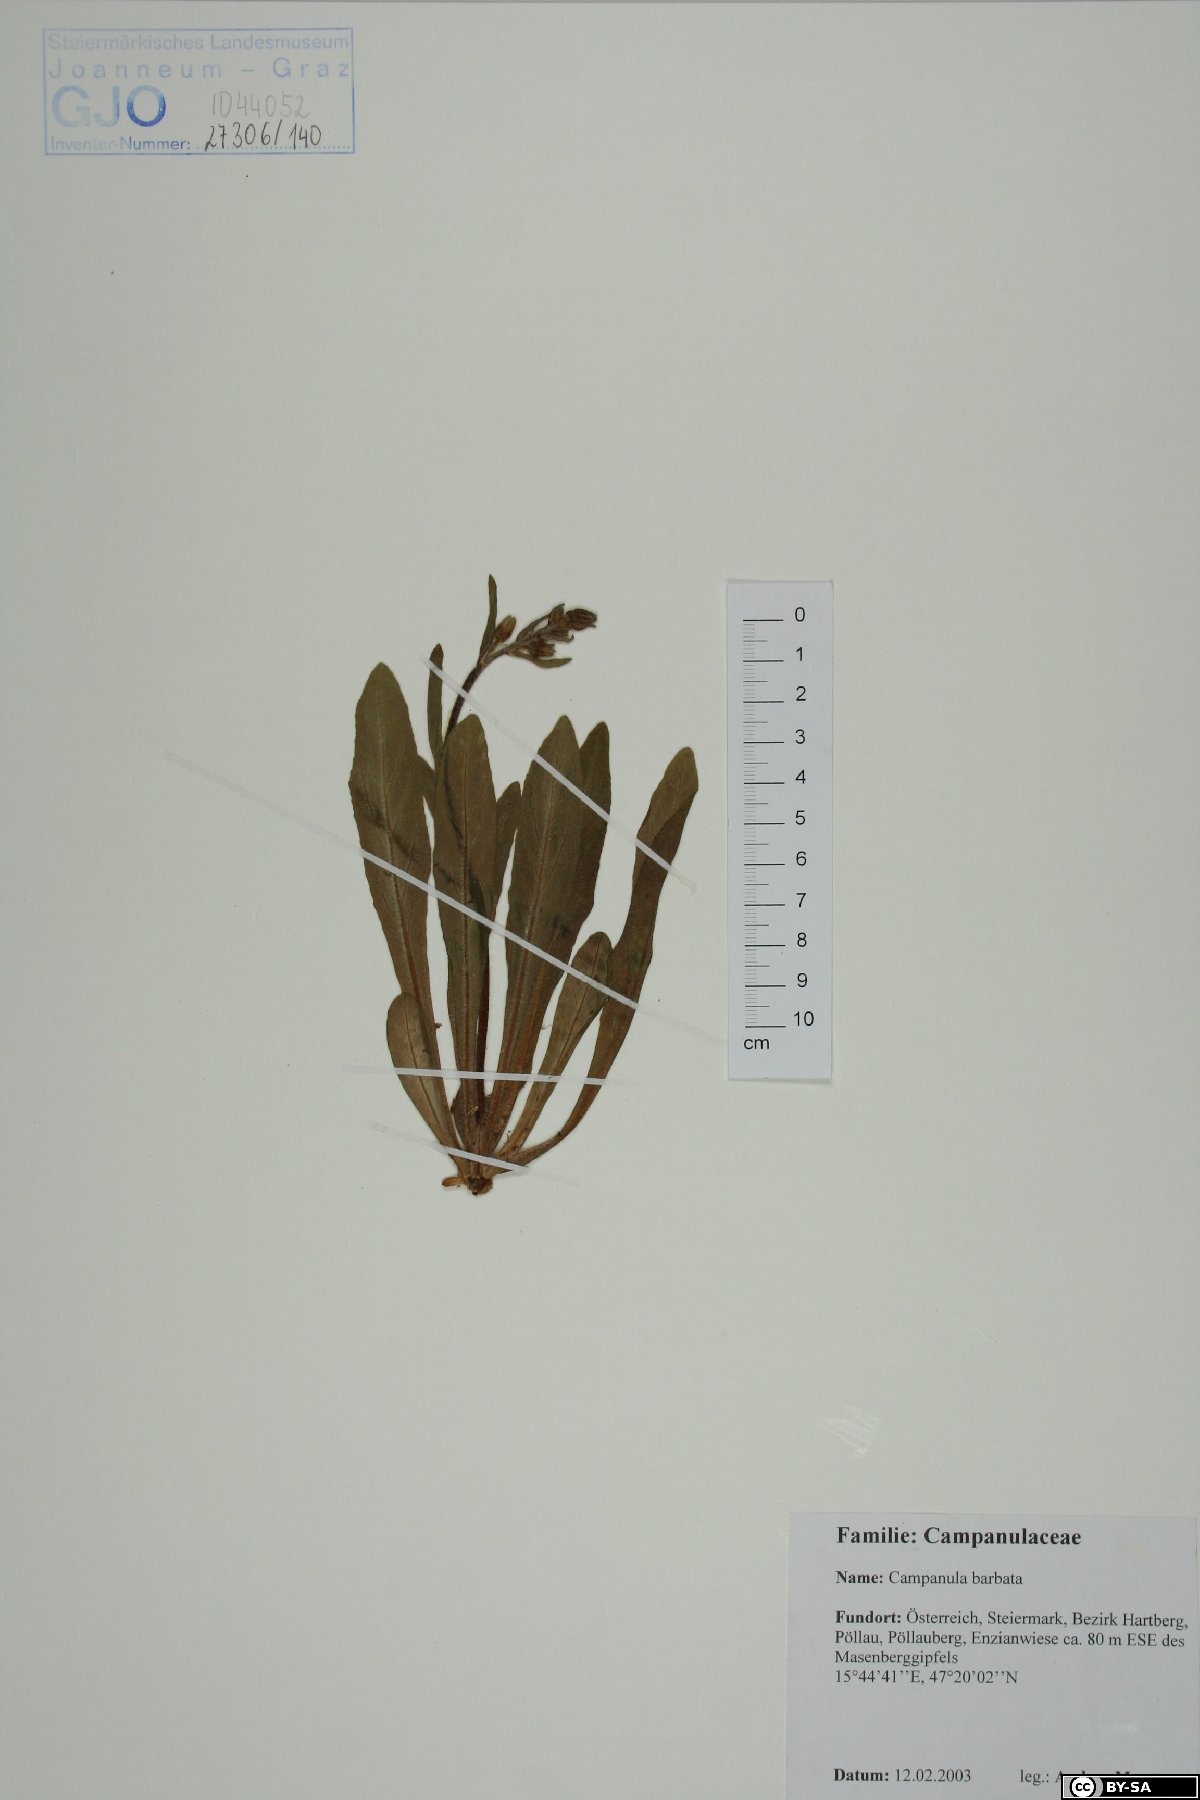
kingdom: Plantae
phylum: Tracheophyta
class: Magnoliopsida
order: Asterales
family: Campanulaceae
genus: Campanula
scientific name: Campanula barbata
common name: Bearded bellflower
